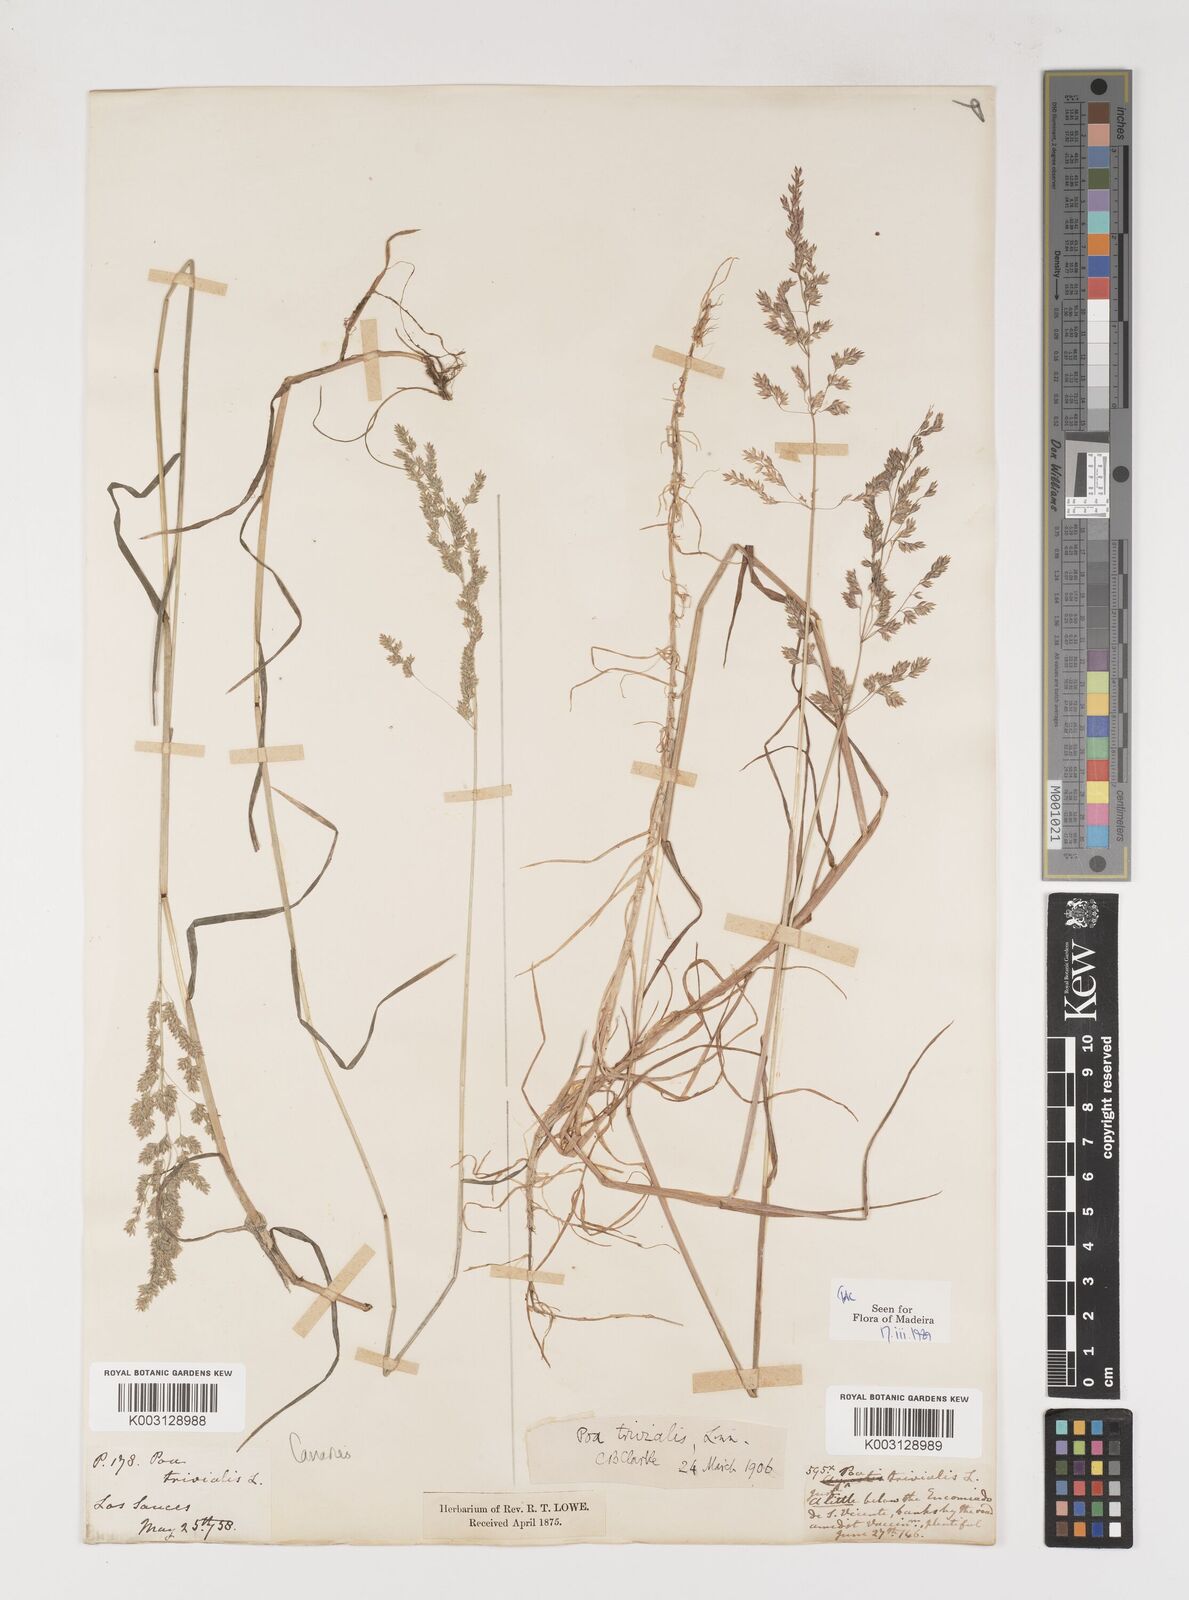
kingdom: Plantae
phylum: Tracheophyta
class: Liliopsida
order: Poales
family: Poaceae
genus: Poa
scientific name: Poa trivialis
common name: Rough bluegrass
